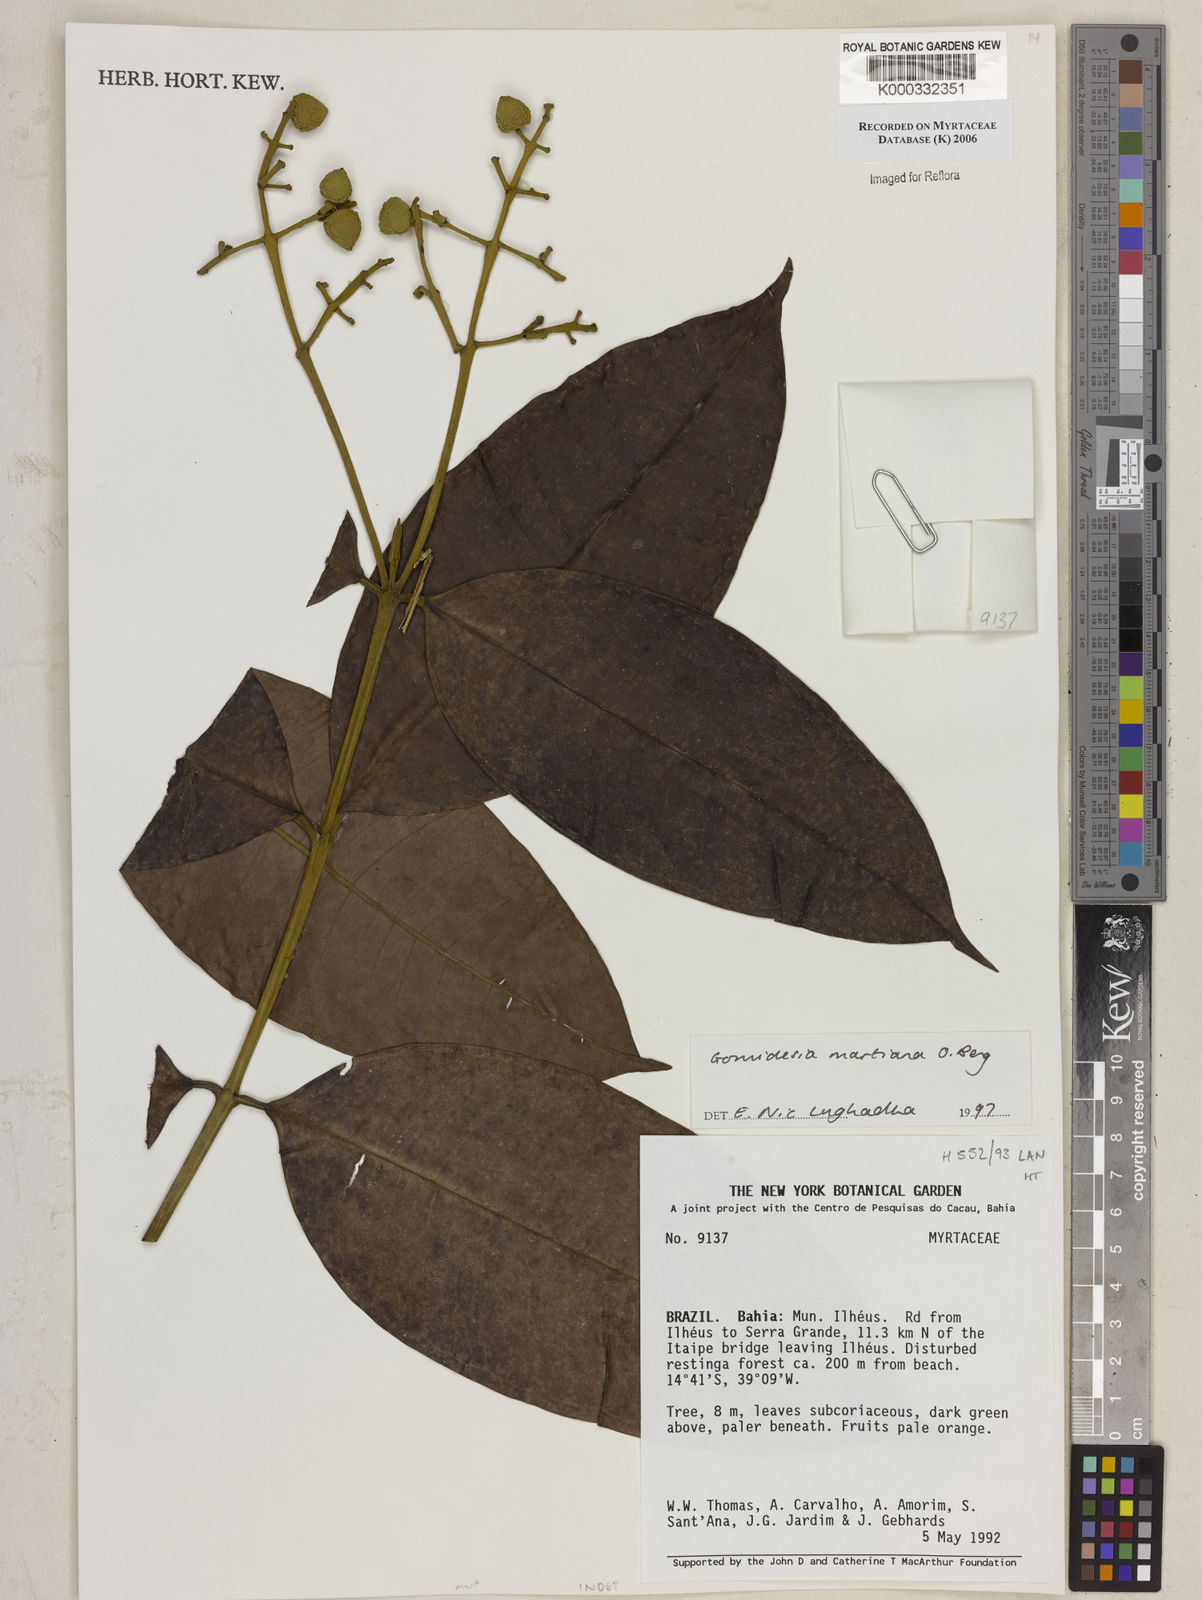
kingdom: Plantae
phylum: Tracheophyta
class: Magnoliopsida
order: Myrtales
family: Myrtaceae
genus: Myrcia
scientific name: Myrcia vittoriana
